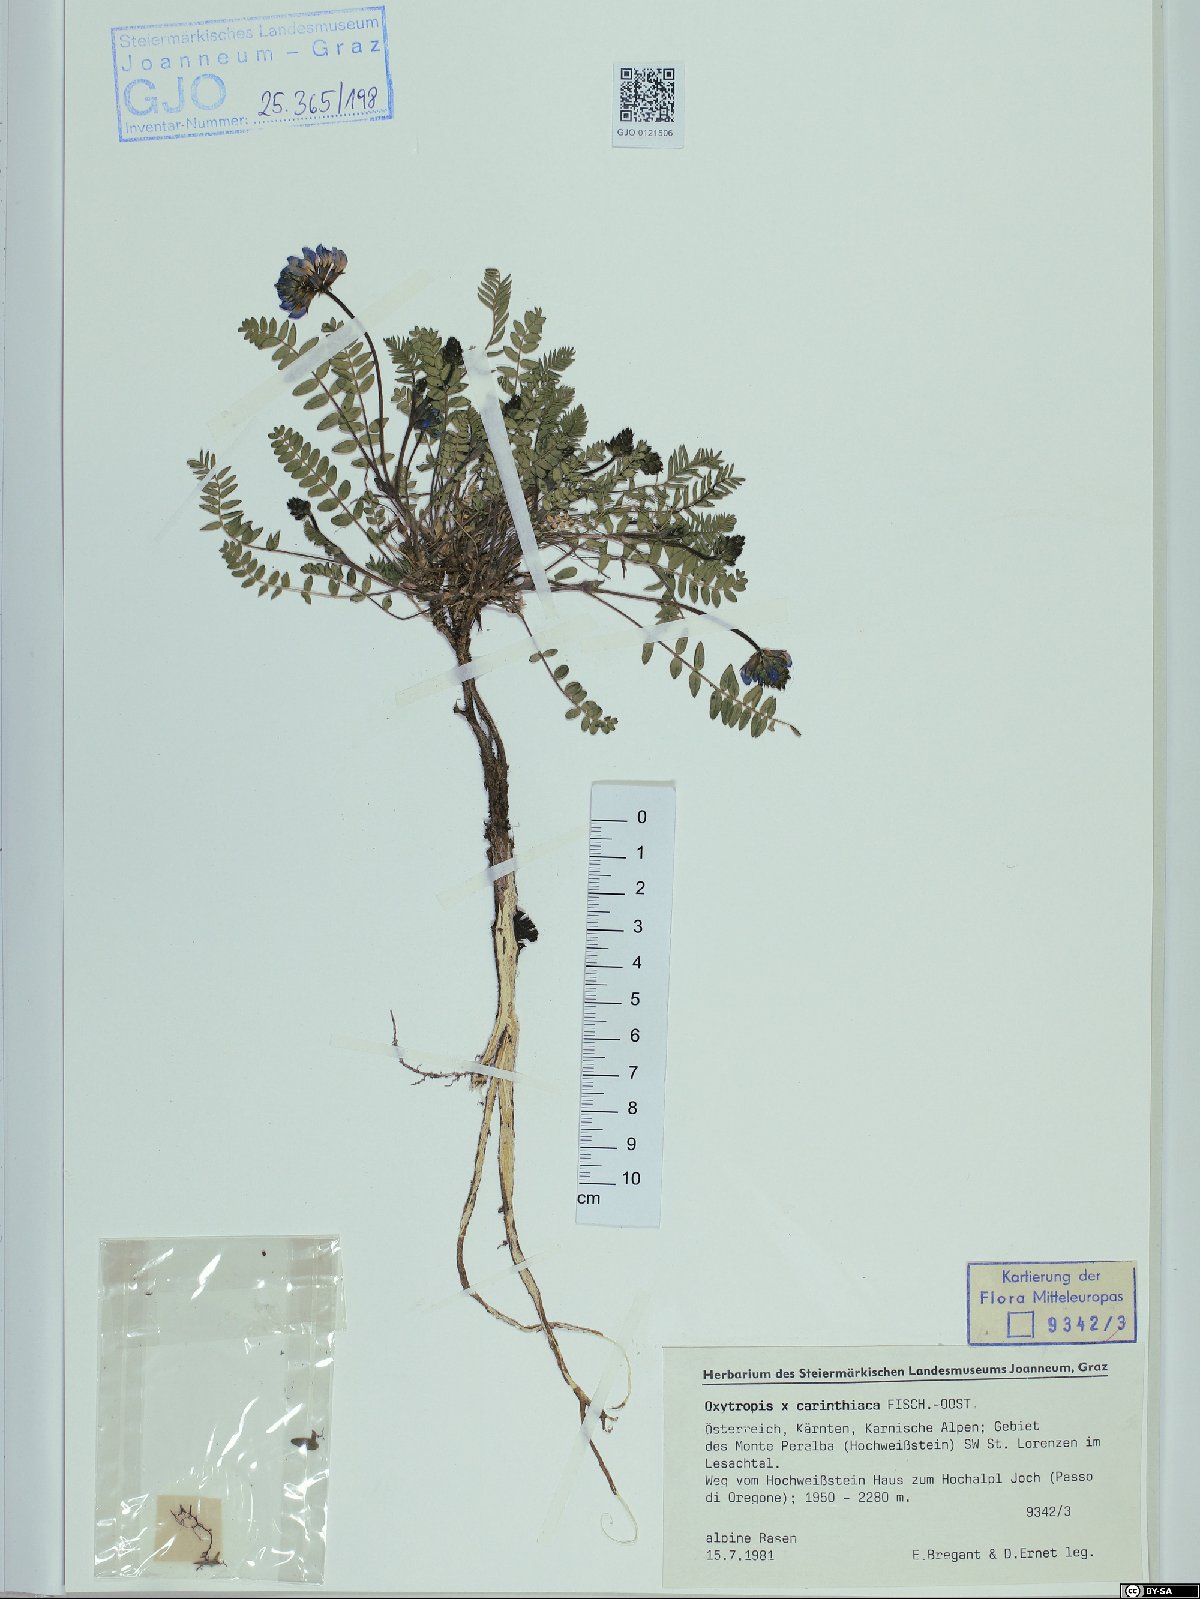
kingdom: Plantae
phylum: Tracheophyta
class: Magnoliopsida
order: Fabales
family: Fabaceae
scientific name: Fabaceae
